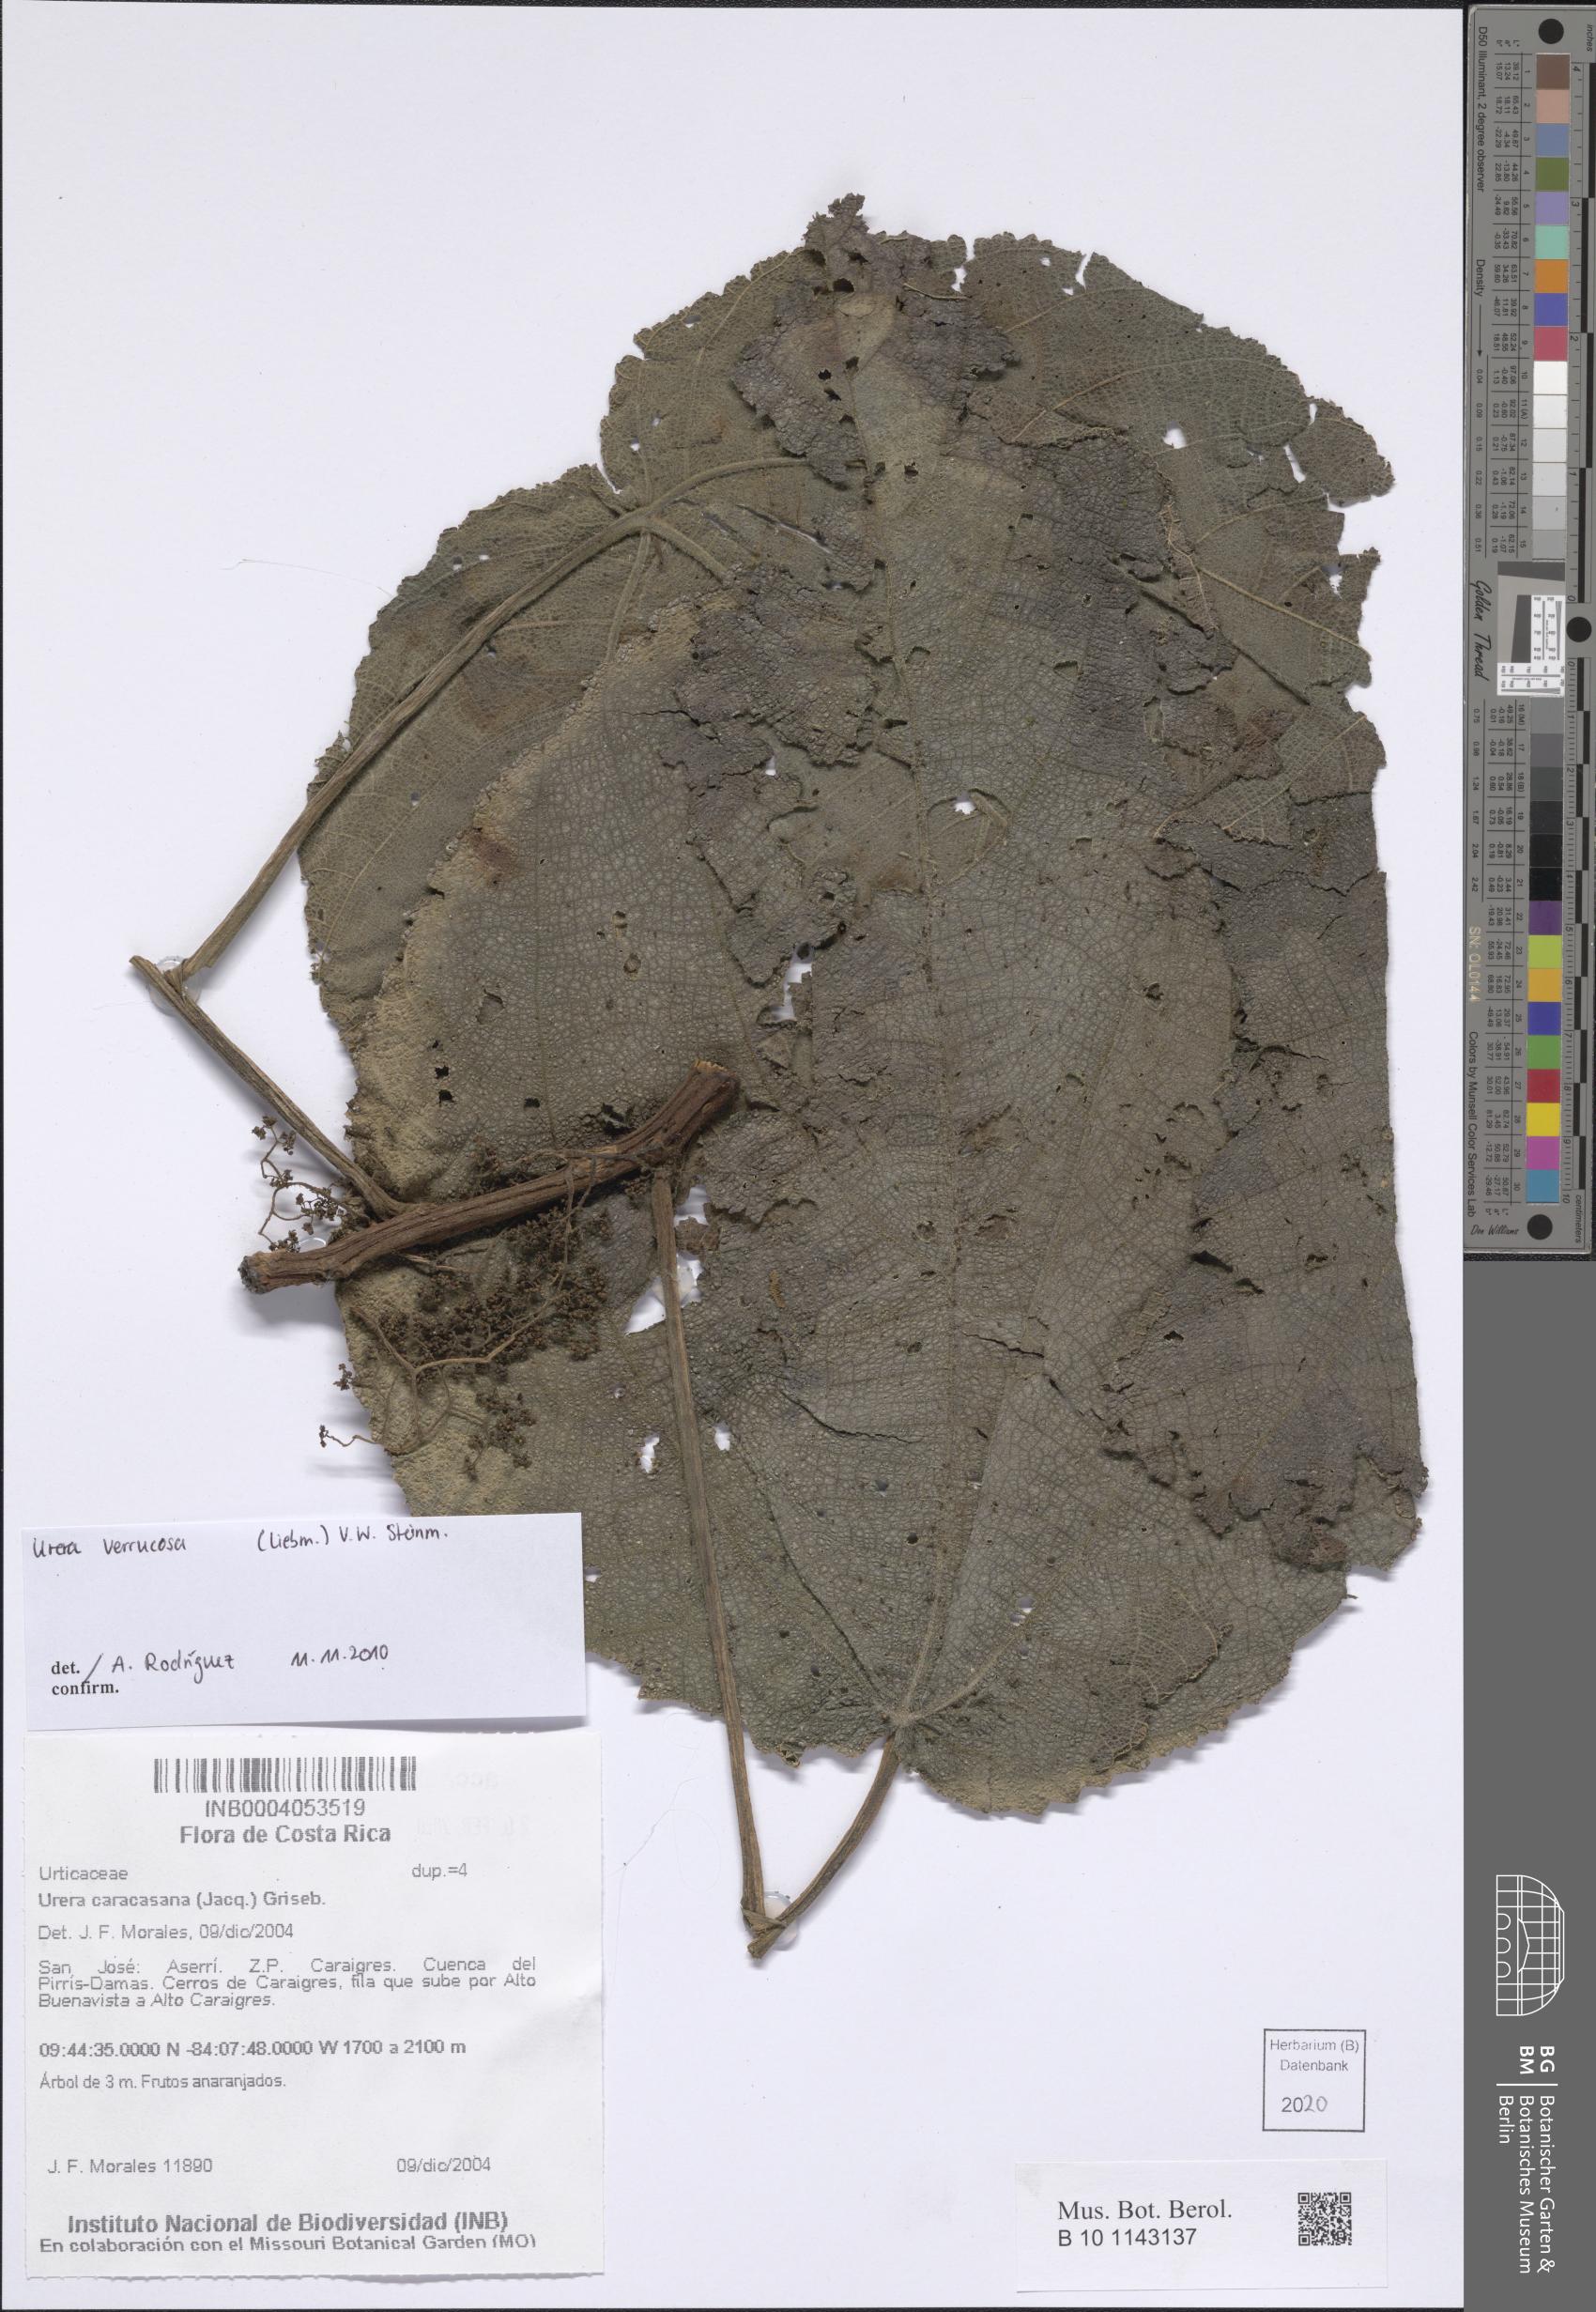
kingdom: Plantae
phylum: Tracheophyta
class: Magnoliopsida
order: Rosales
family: Urticaceae
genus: Urera
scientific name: Urera verrucosa
